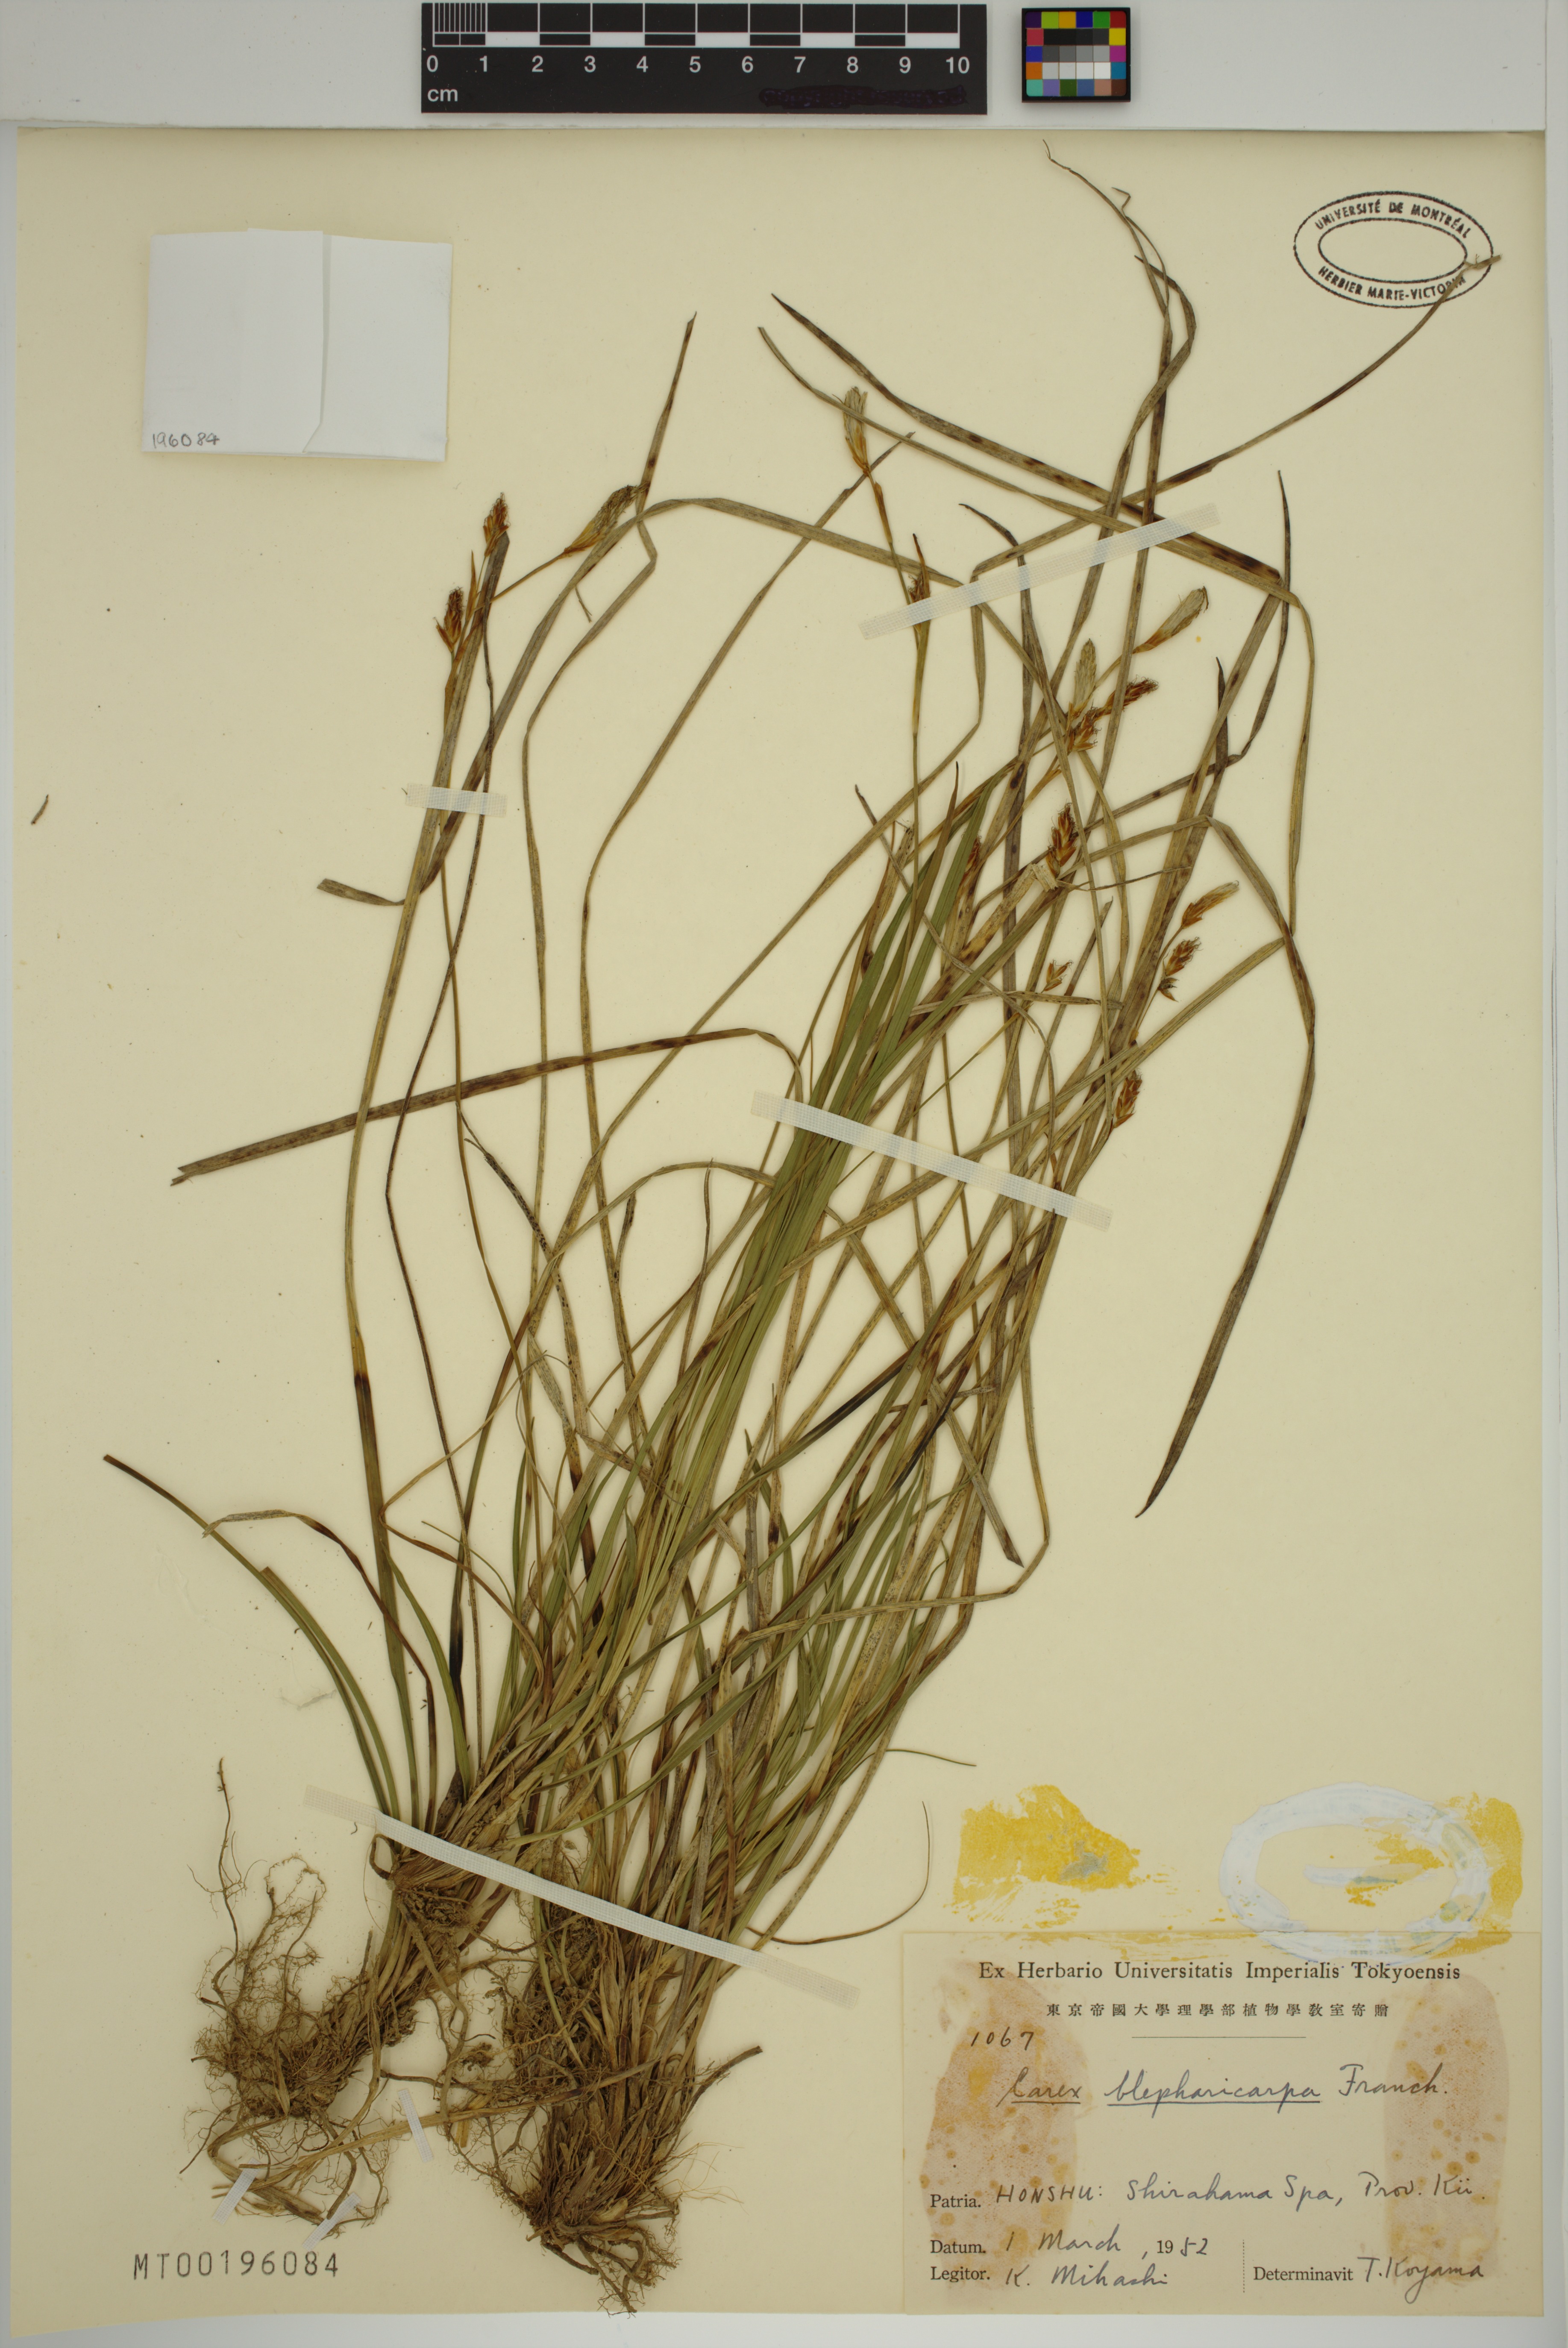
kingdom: Plantae
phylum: Tracheophyta
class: Liliopsida
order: Poales
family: Cyperaceae
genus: Carex
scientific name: Carex blepharicarpa
